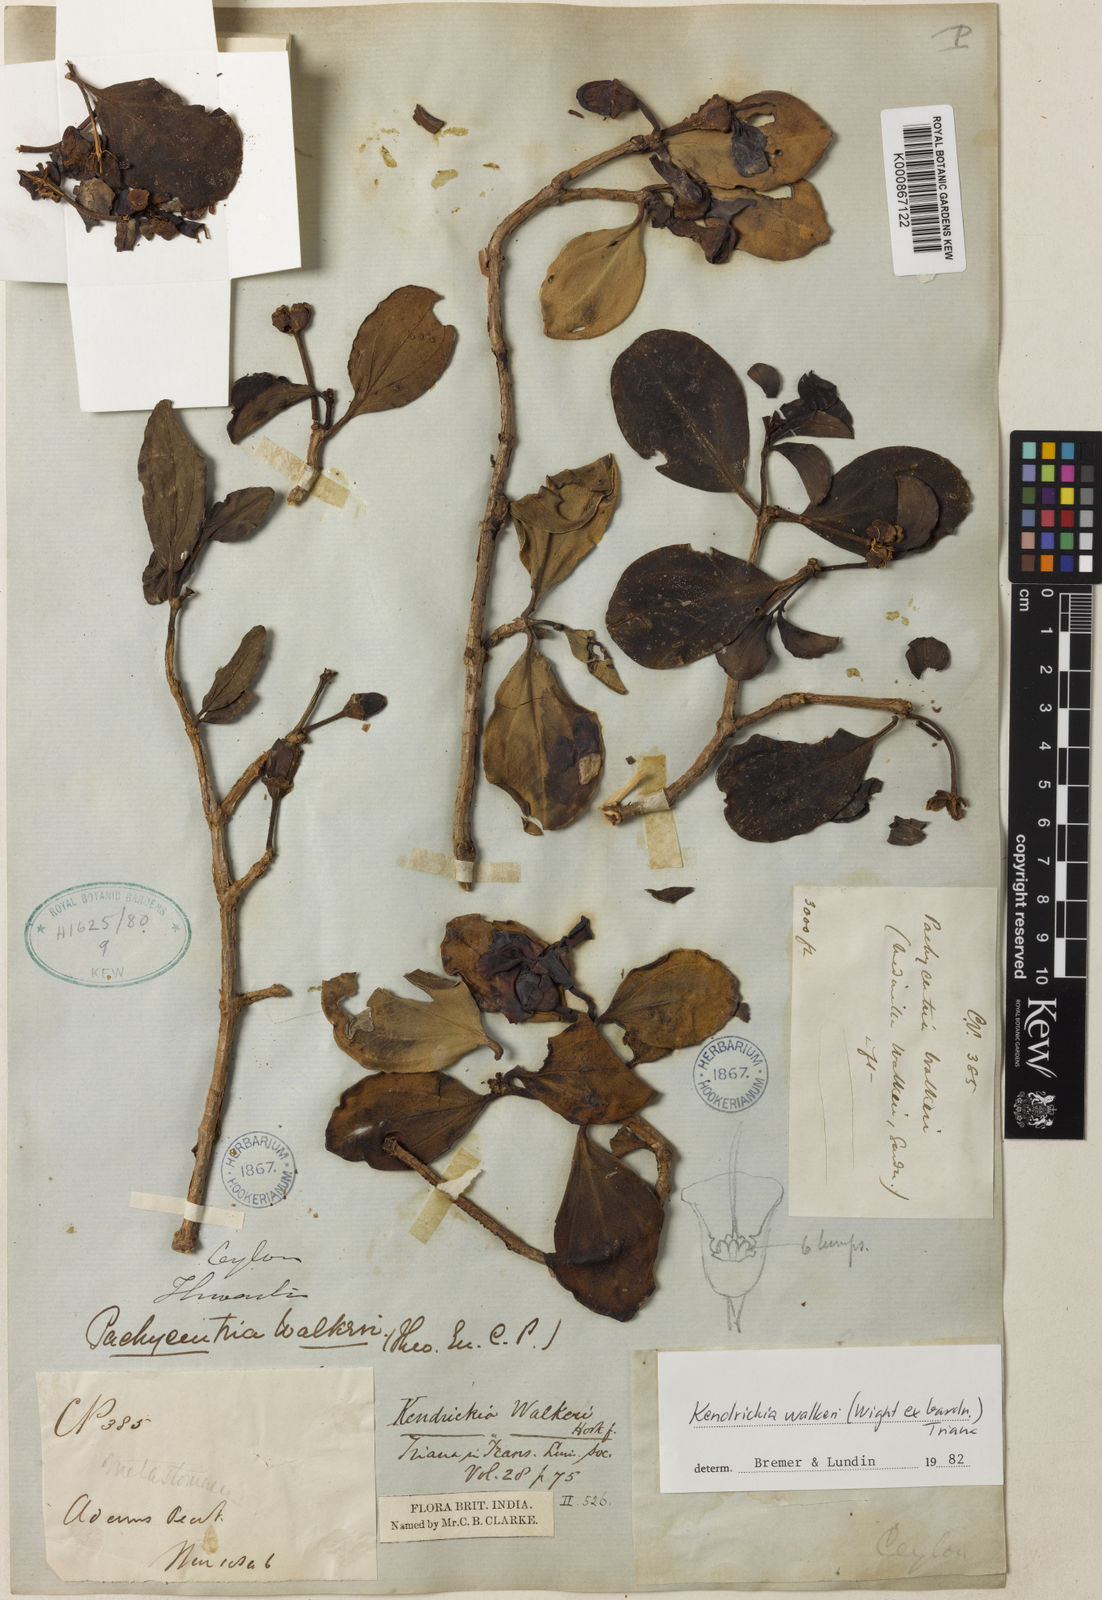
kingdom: Plantae
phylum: Tracheophyta
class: Magnoliopsida
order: Myrtales
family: Melastomataceae
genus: Kendrickia
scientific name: Kendrickia walkeri
